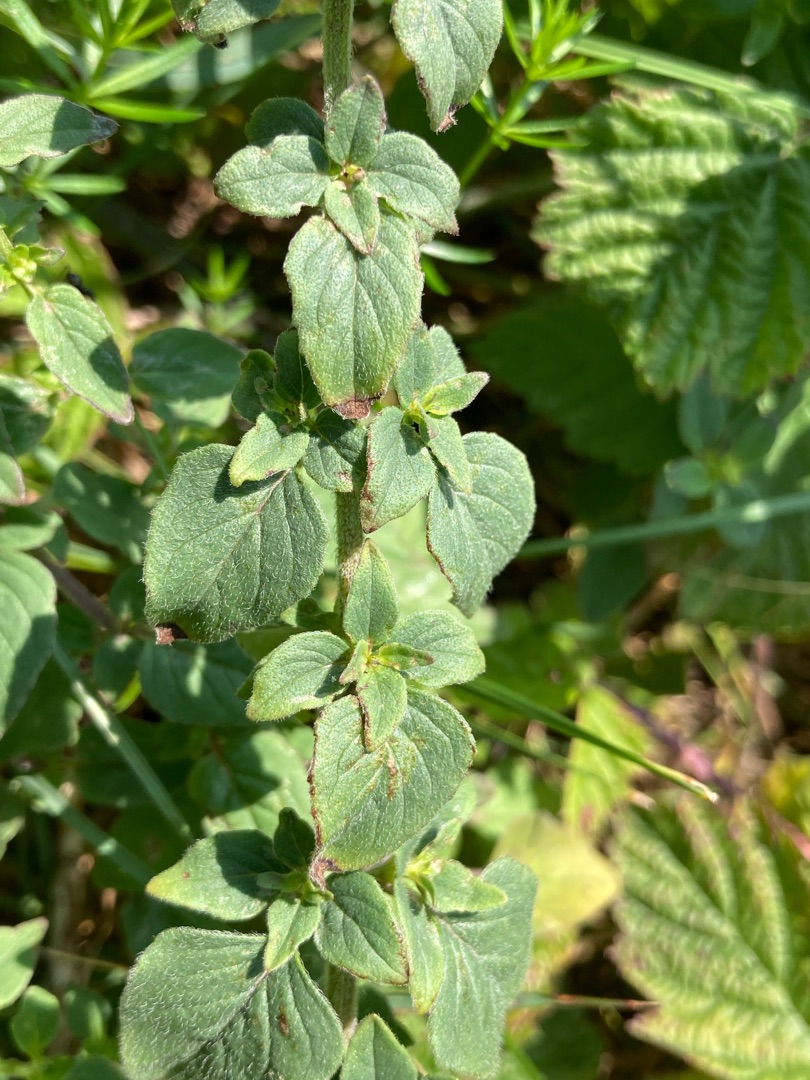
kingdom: Plantae
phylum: Tracheophyta
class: Magnoliopsida
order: Lamiales
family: Lamiaceae
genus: Origanum
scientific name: Origanum vulgare
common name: Merian
